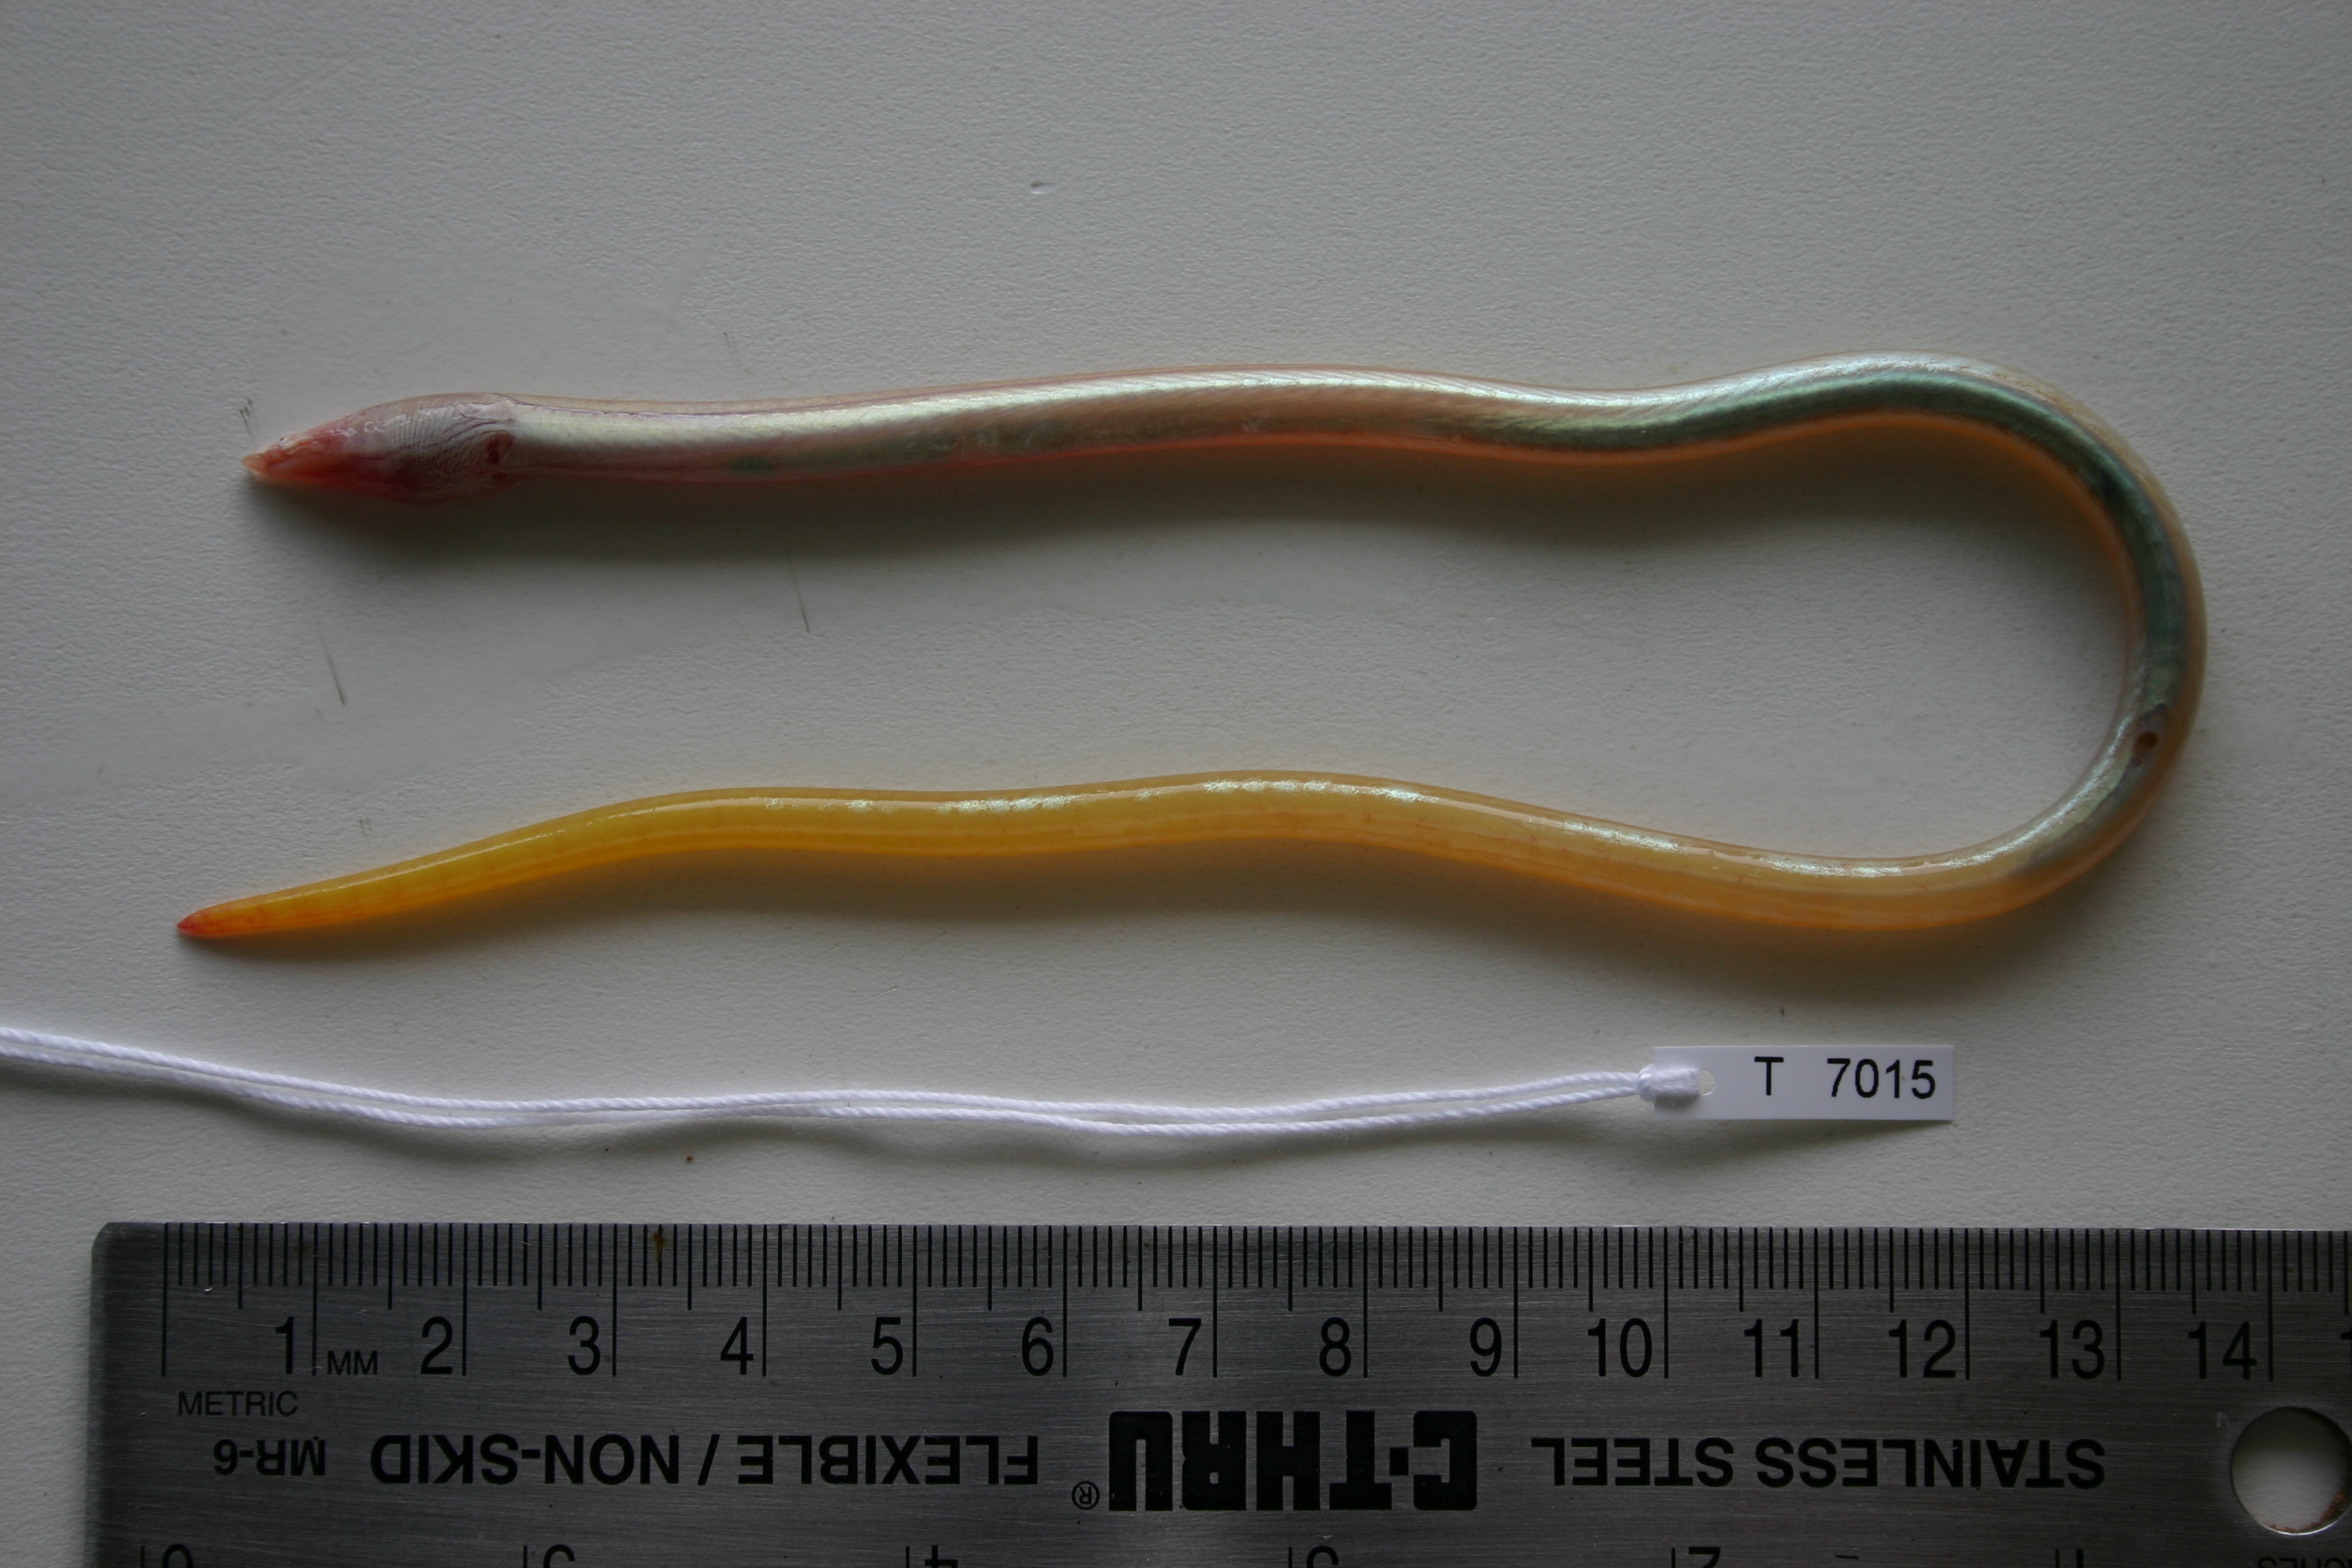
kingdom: Animalia
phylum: Chordata
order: Anguilliformes
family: Ophichthidae
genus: Yirrkala
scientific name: Yirrkala tenuis
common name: Thin sand-eel
